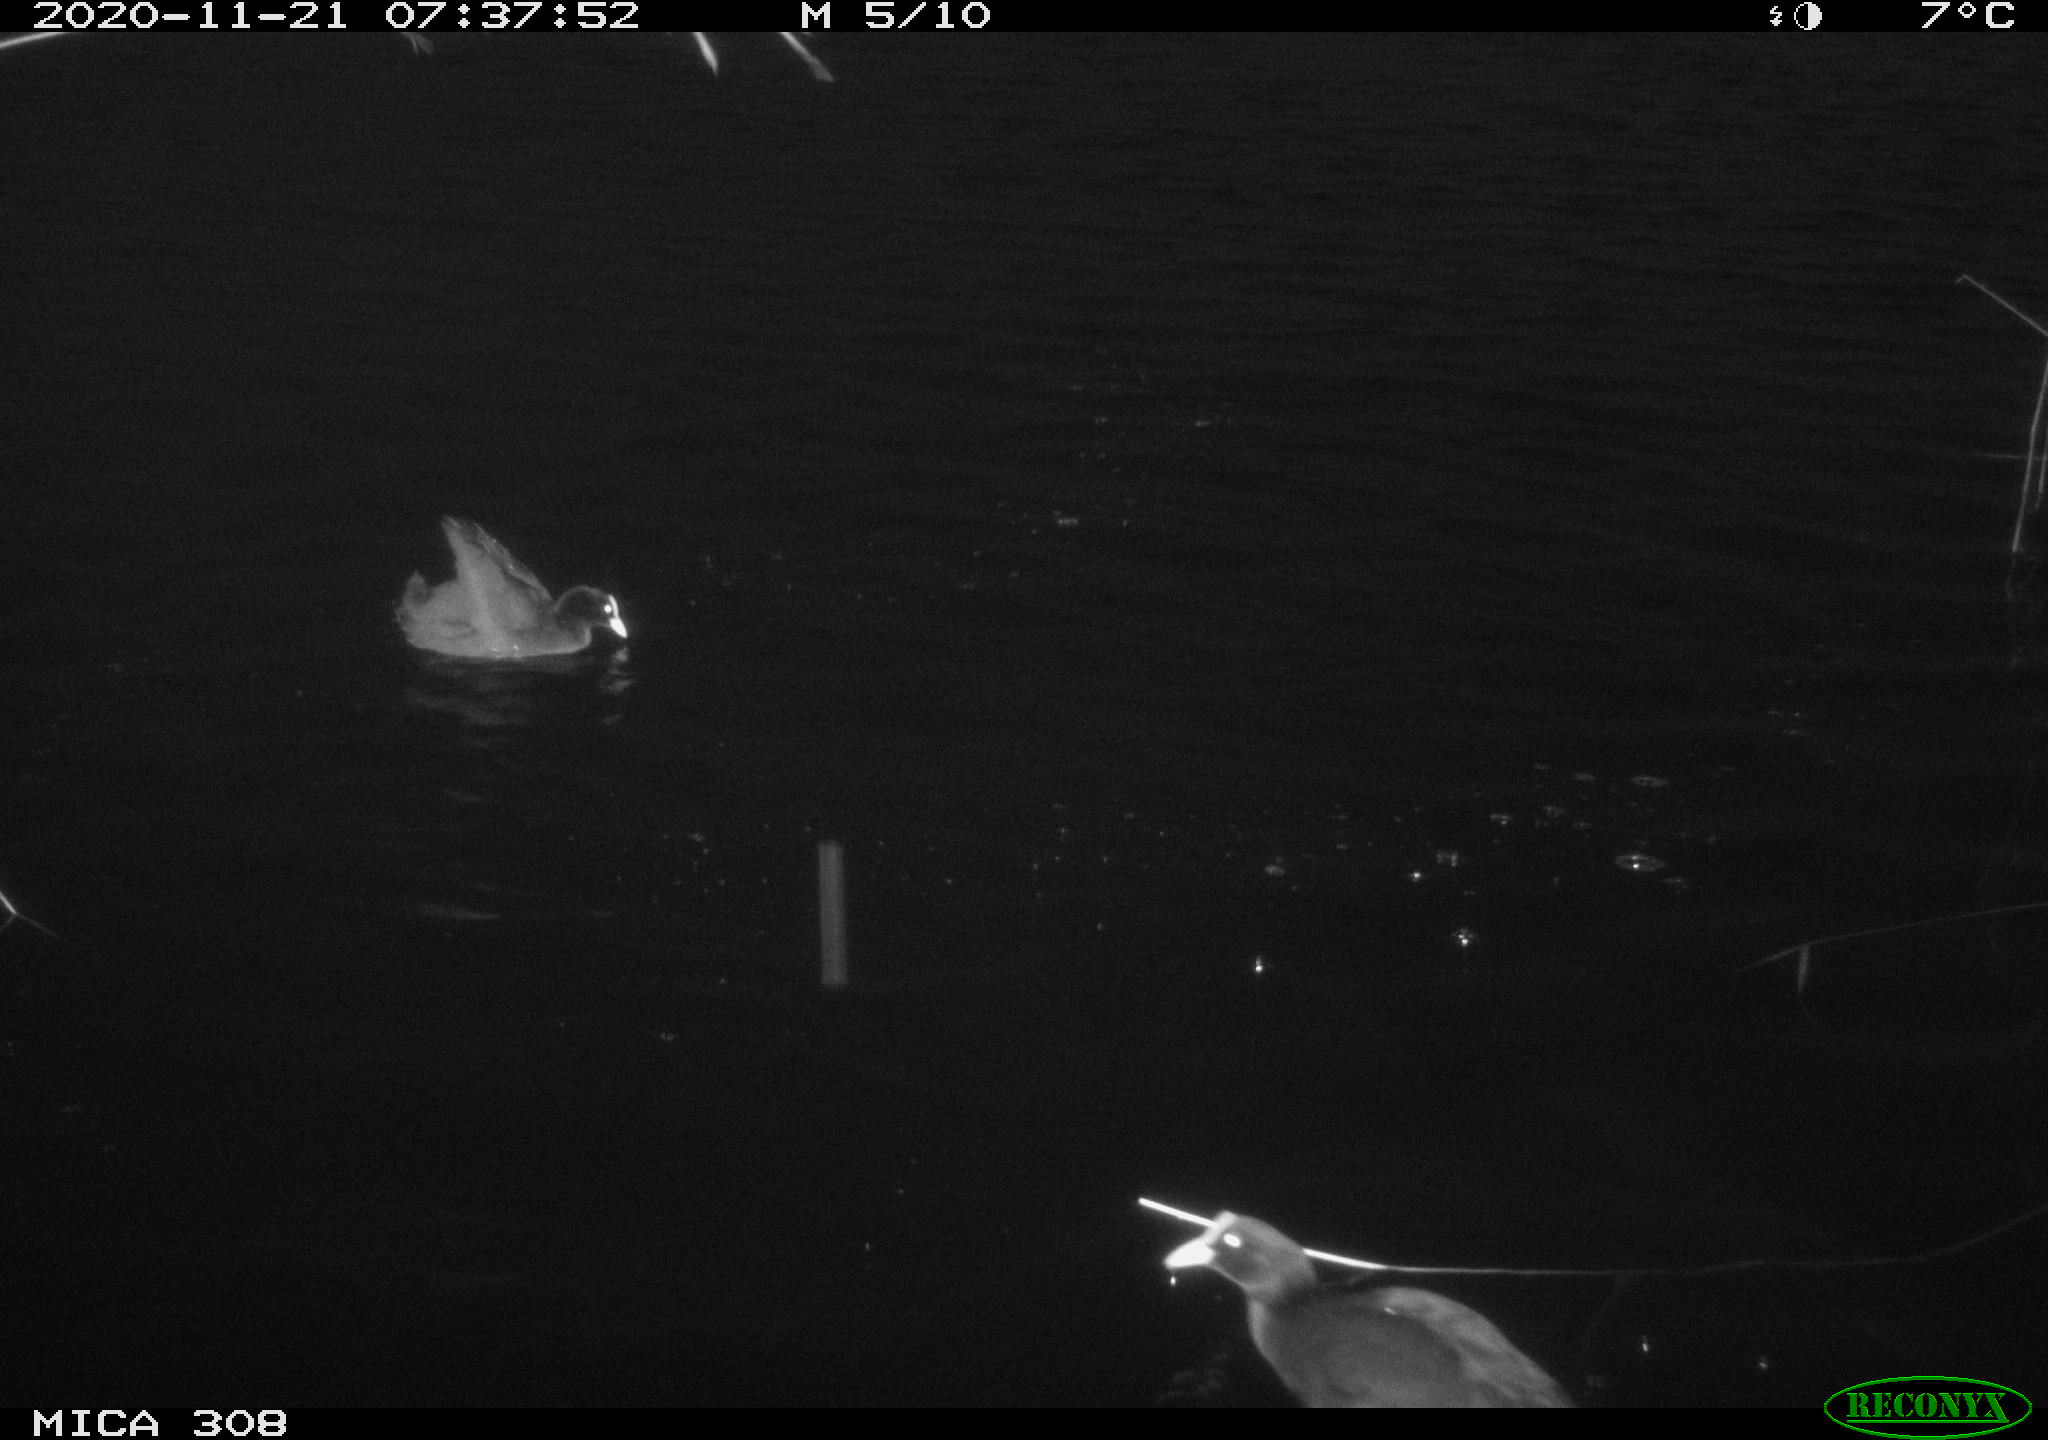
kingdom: Animalia
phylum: Chordata
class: Aves
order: Gruiformes
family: Rallidae
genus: Fulica
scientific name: Fulica atra
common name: Eurasian coot
